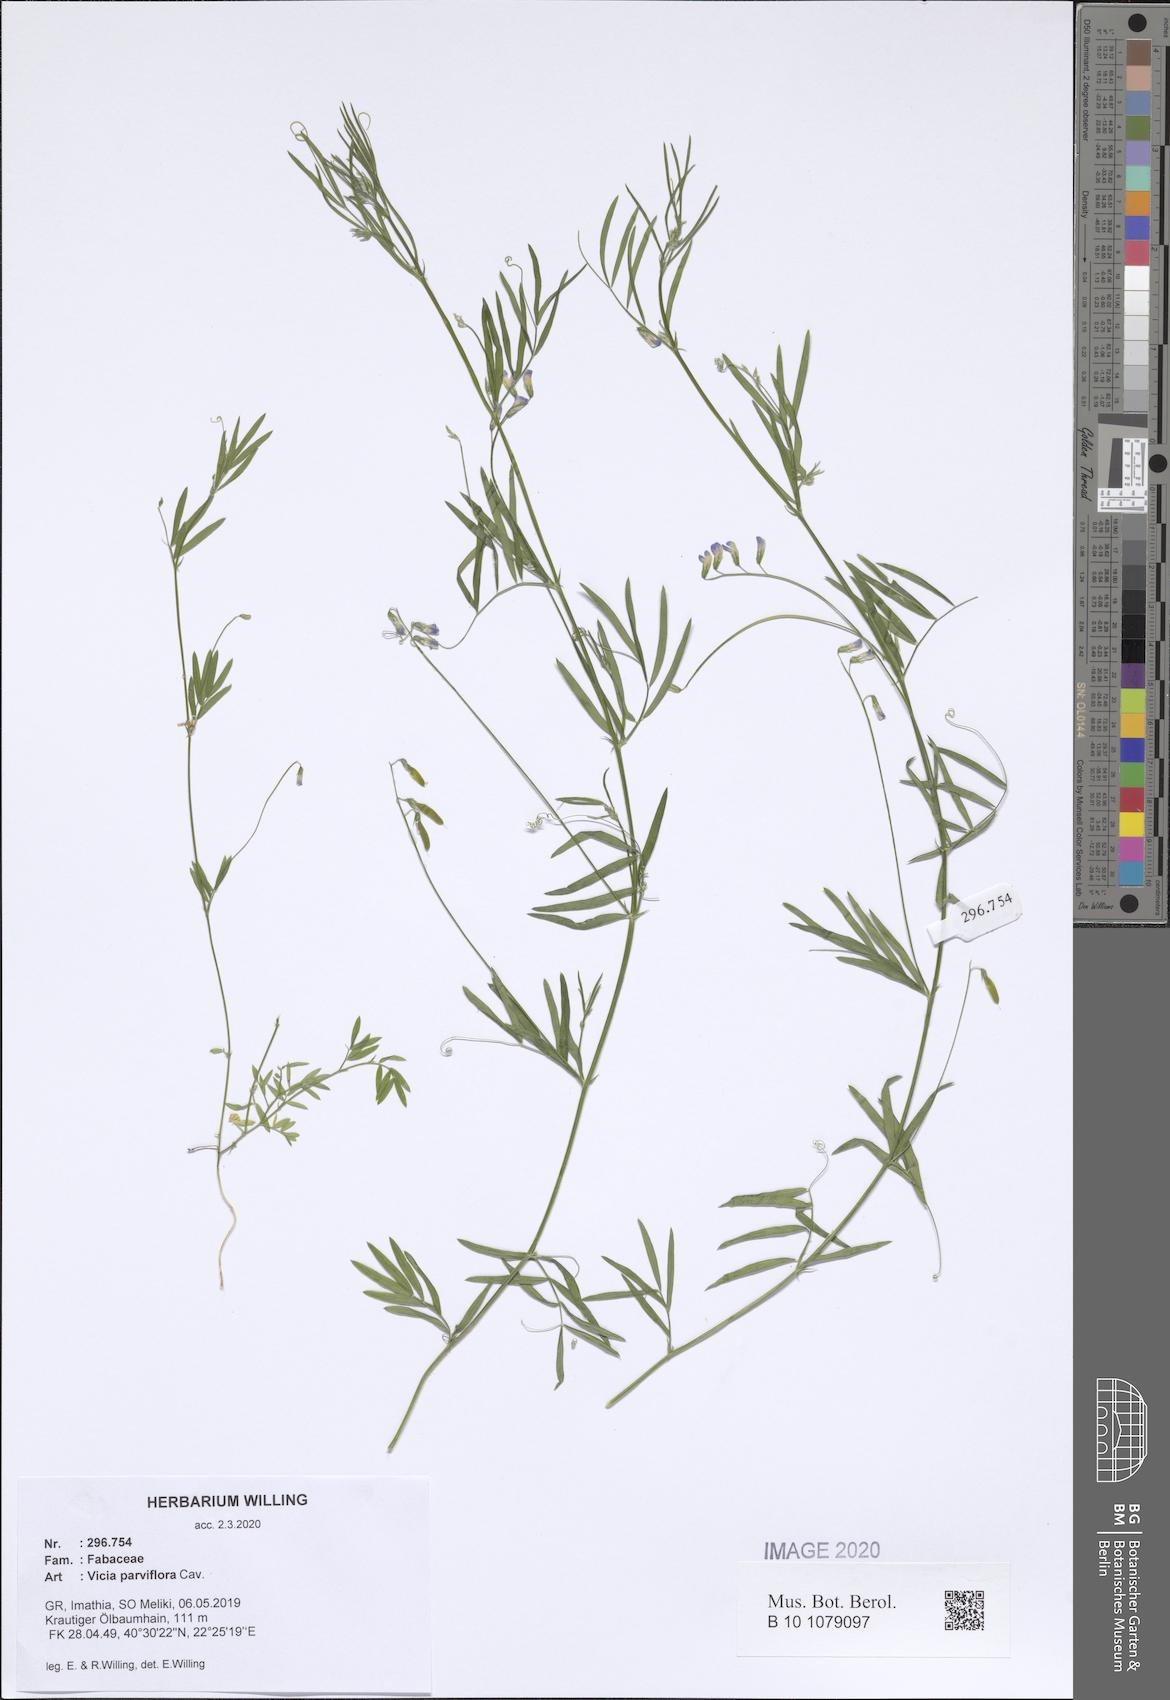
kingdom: Plantae
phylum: Tracheophyta
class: Magnoliopsida
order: Fabales
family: Fabaceae
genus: Vicia
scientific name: Vicia parviflora
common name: Slender tare
